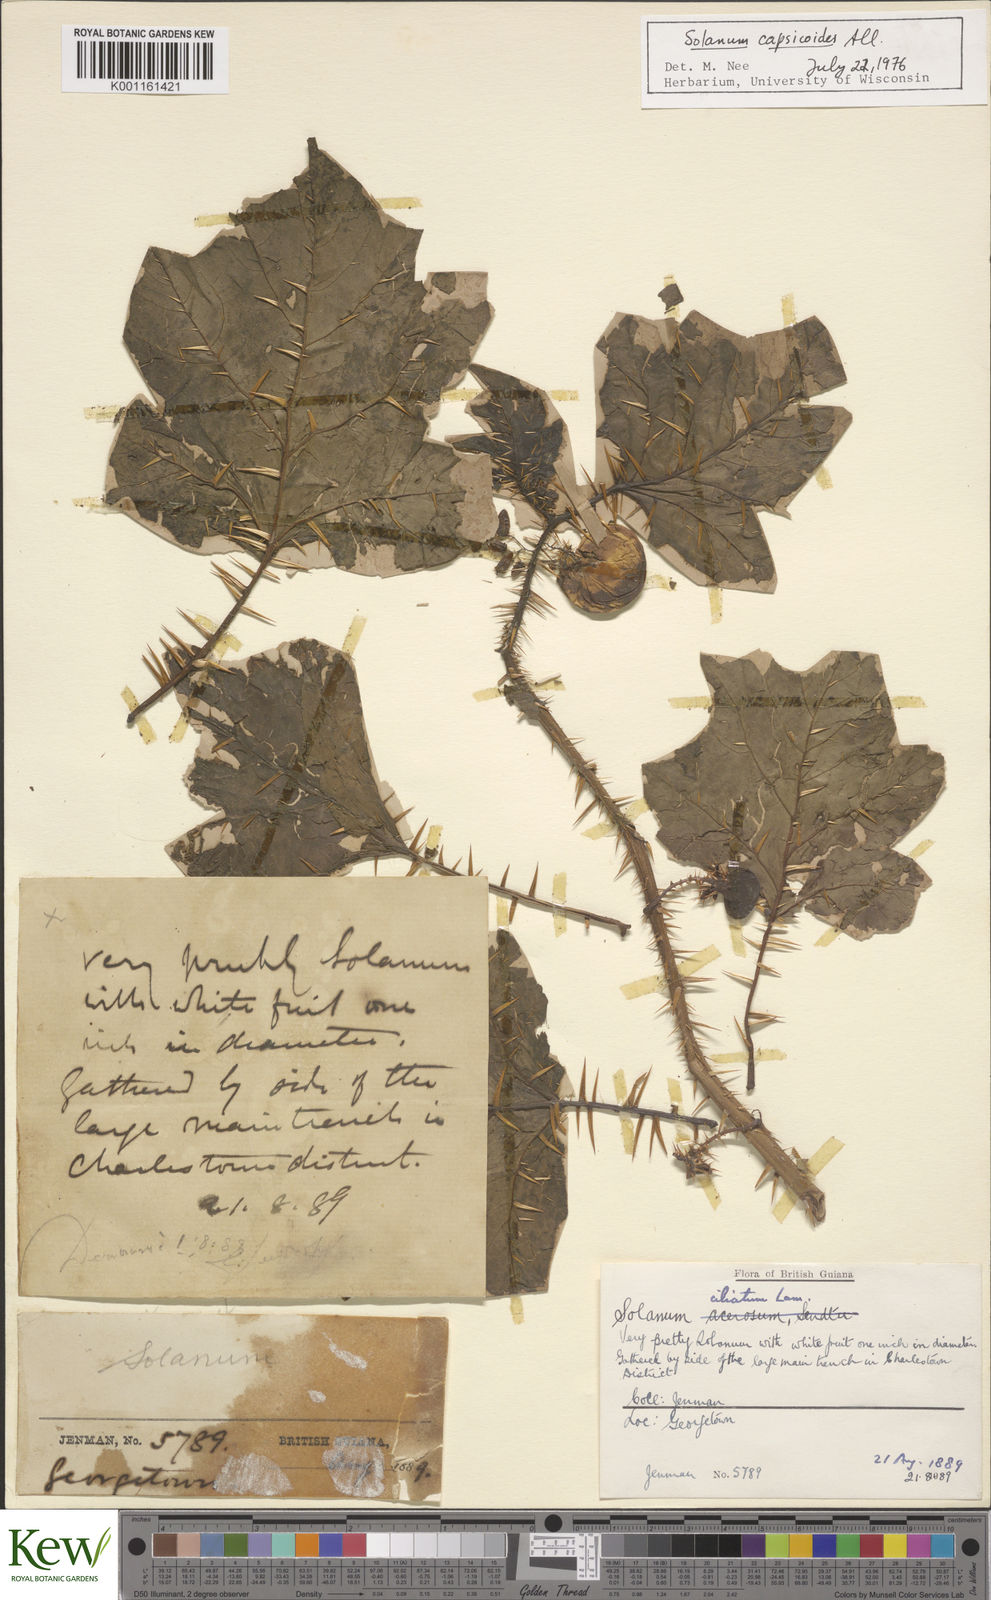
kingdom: Plantae
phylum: Tracheophyta
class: Magnoliopsida
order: Solanales
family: Solanaceae
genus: Solanum
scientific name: Solanum capsicoides
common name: Cockroach berry
